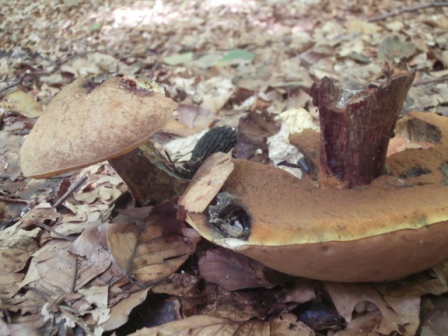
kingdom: Fungi
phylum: Basidiomycota
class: Agaricomycetes
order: Boletales
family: Boletaceae
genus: Suillellus
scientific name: Suillellus luridus
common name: netstokket indigorørhat
